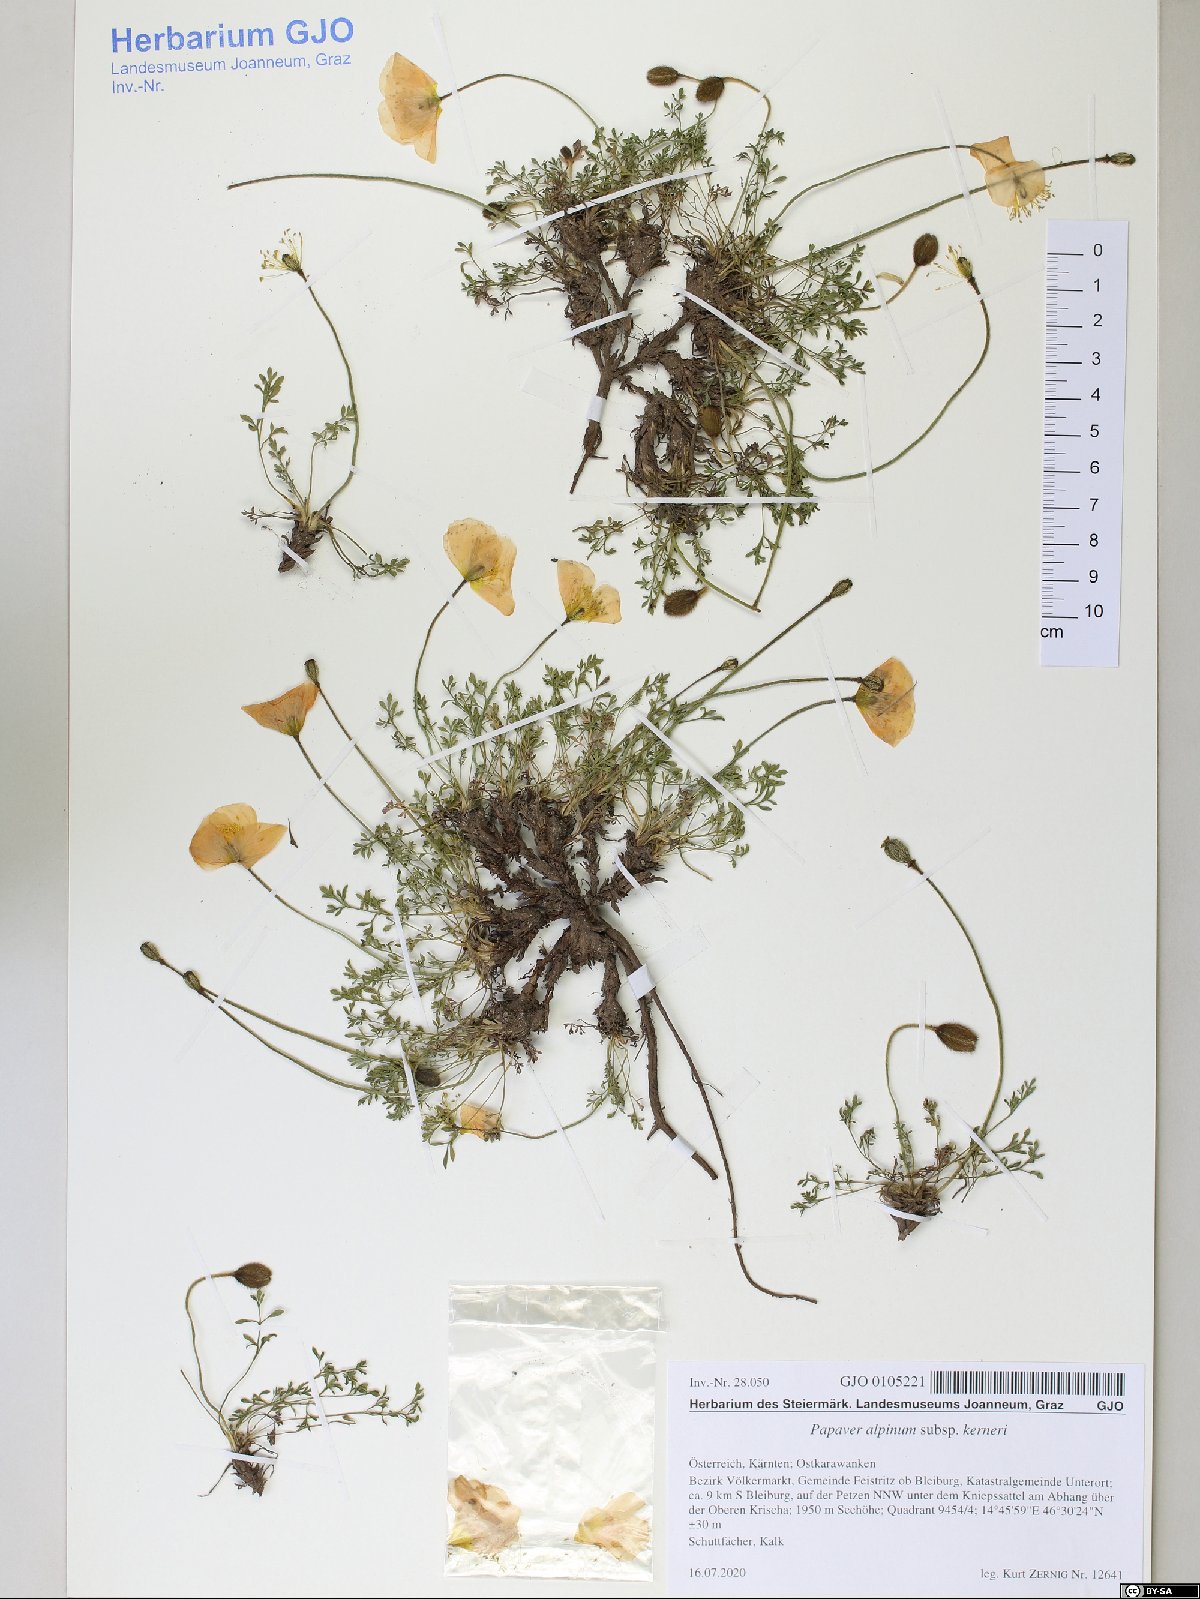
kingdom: Plantae
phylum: Tracheophyta
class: Magnoliopsida
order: Ranunculales
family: Papaveraceae
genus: Papaver
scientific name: Papaver alpinum
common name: Austrian poppy
